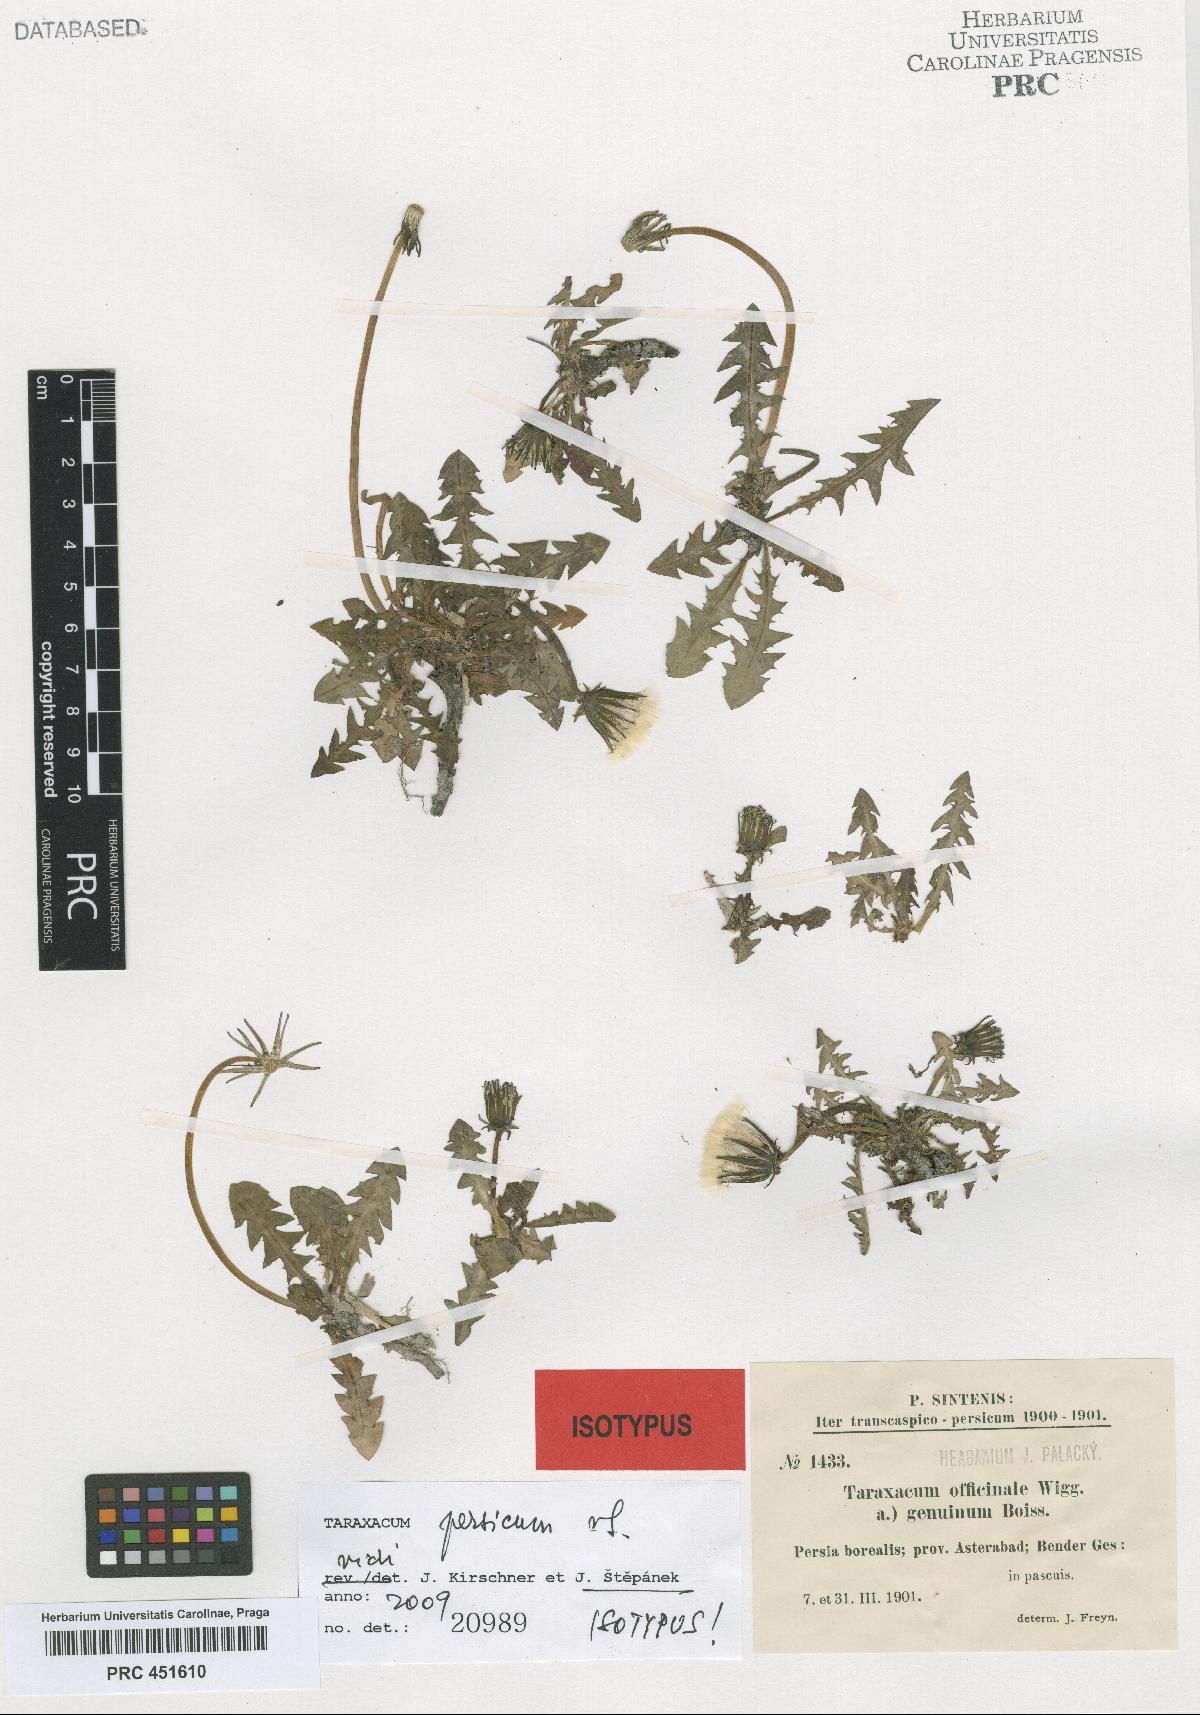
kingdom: Plantae
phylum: Tracheophyta
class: Magnoliopsida
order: Asterales
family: Asteraceae
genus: Taraxacum
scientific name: Taraxacum persicum
